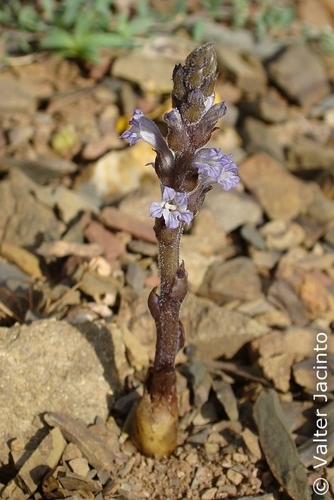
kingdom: Plantae
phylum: Tracheophyta
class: Magnoliopsida
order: Lamiales
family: Orobanchaceae
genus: Phelipanche
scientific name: Phelipanche rosmarina
